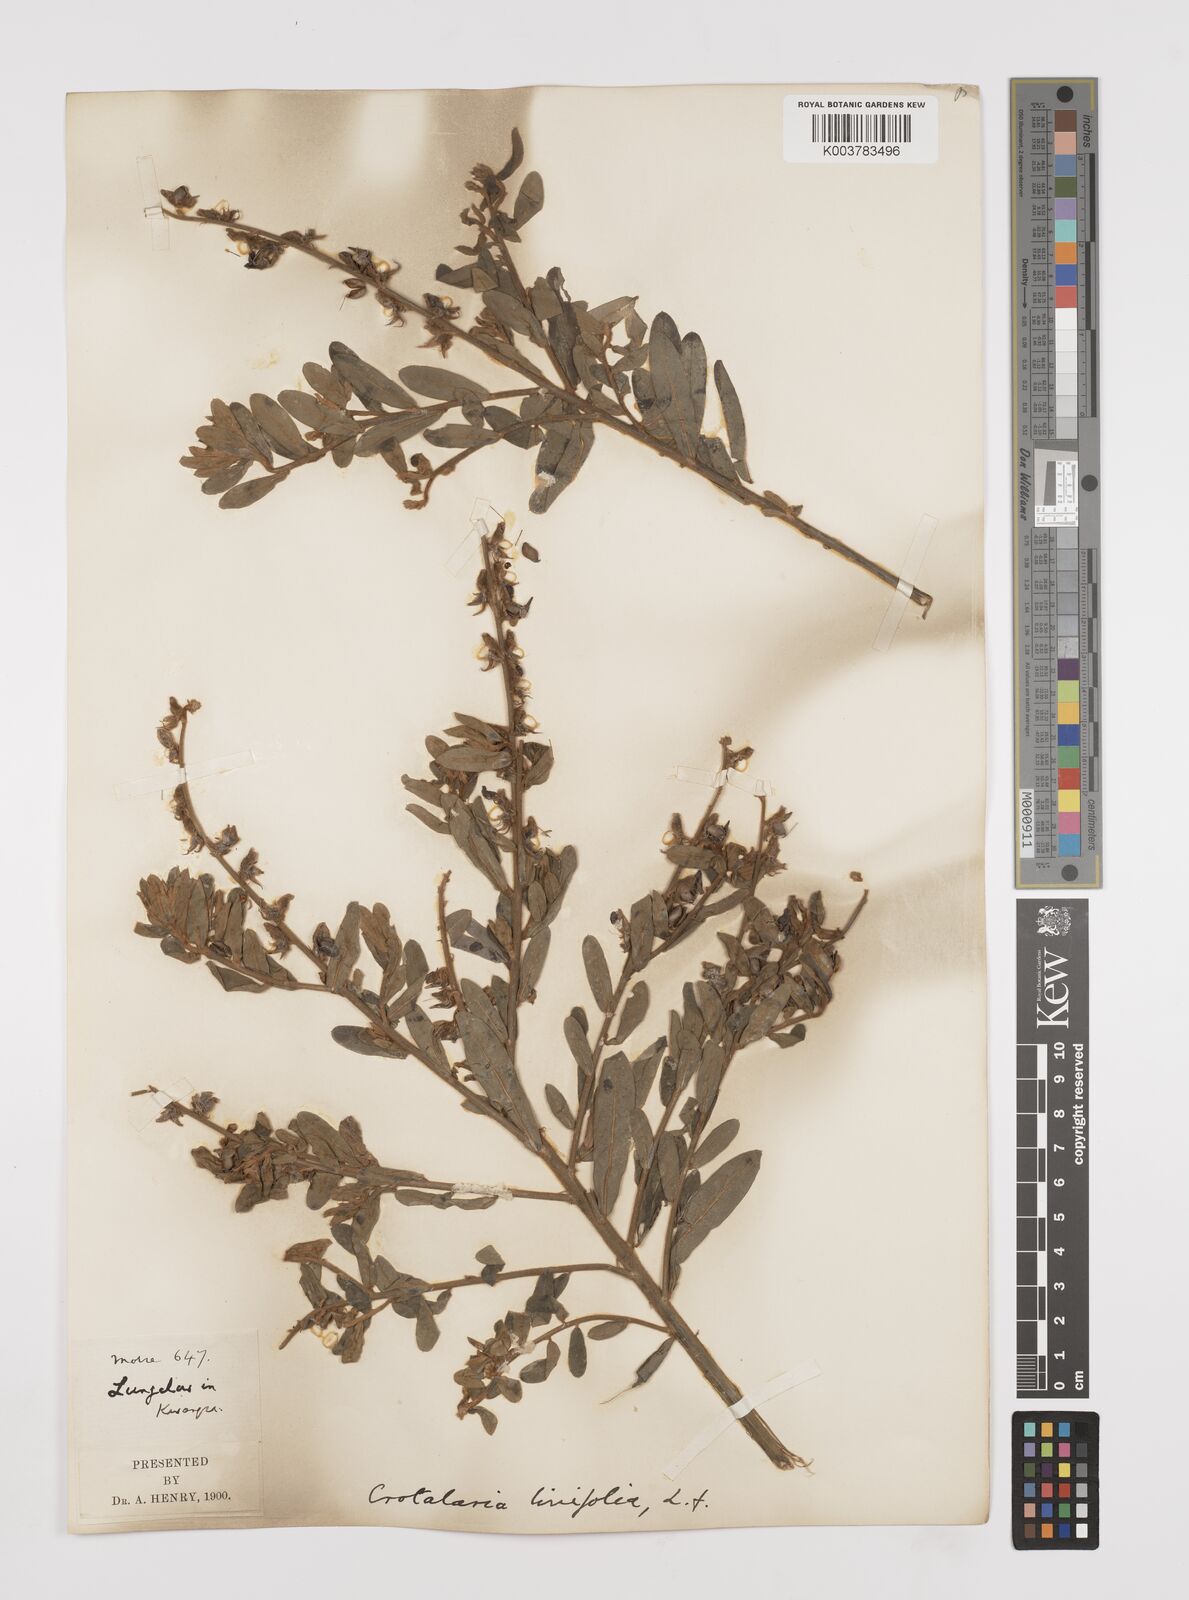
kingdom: Plantae
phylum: Tracheophyta
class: Magnoliopsida
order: Fabales
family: Fabaceae
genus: Crotalaria
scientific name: Crotalaria linifolia
